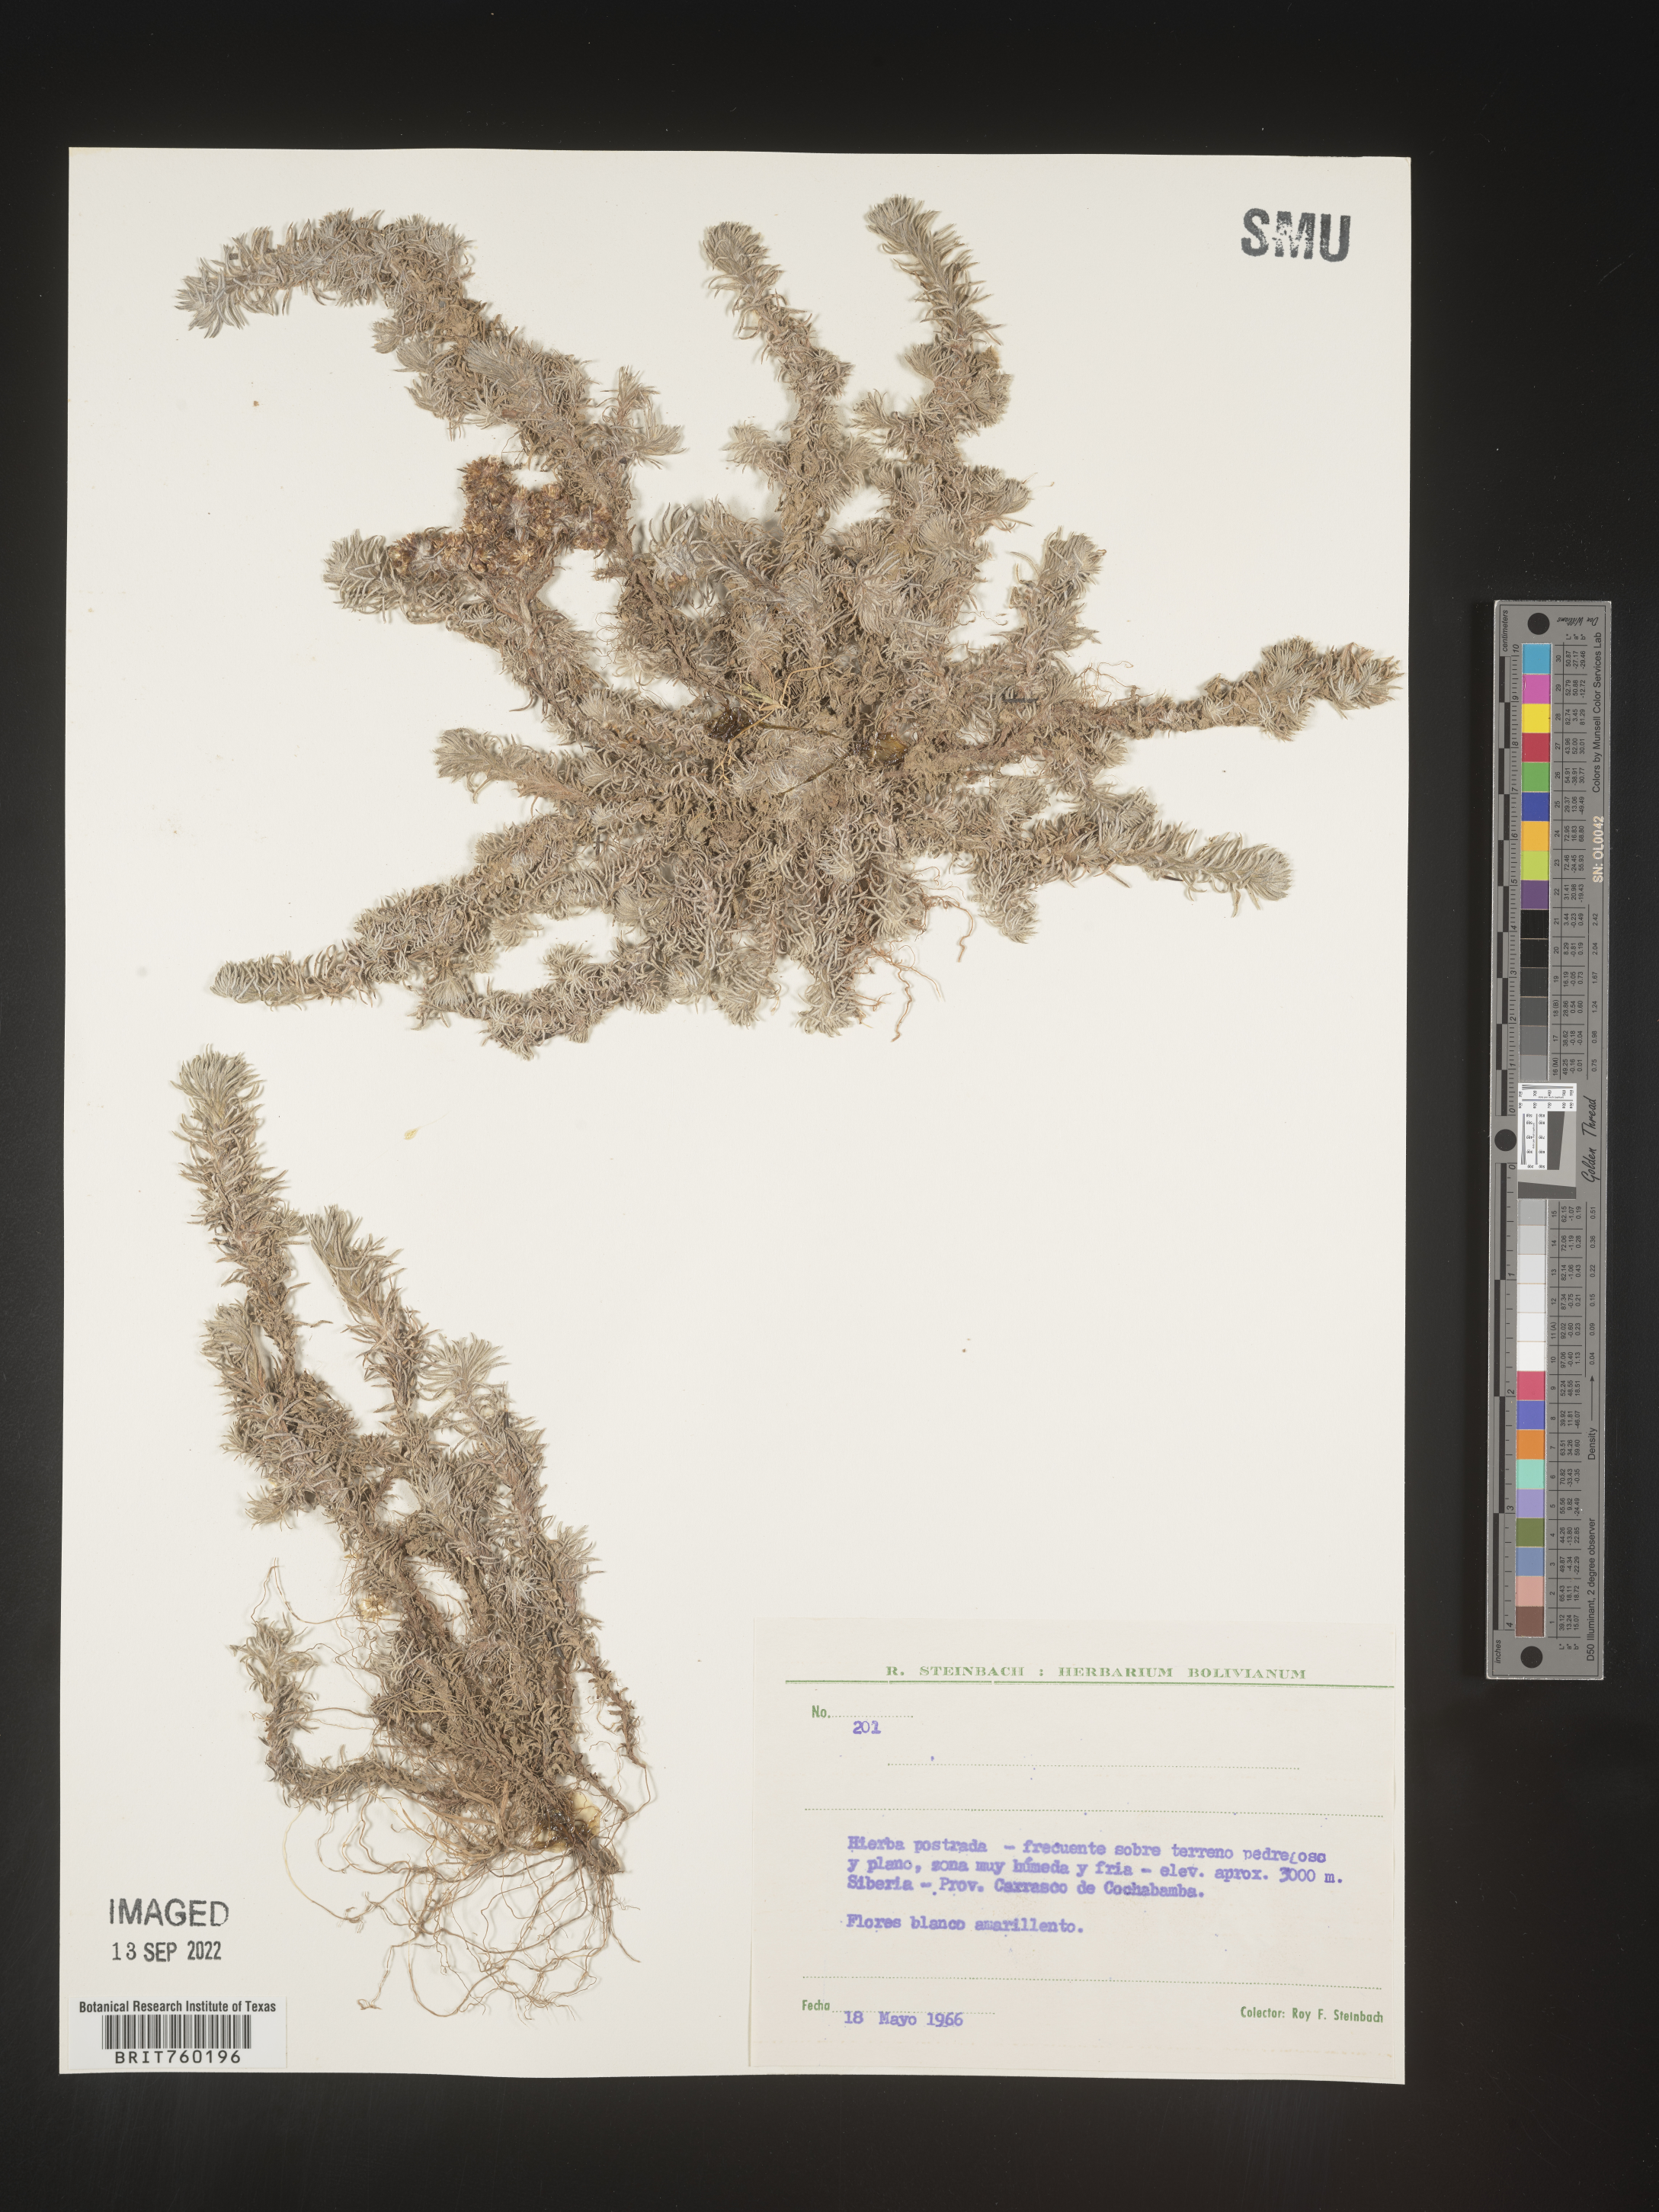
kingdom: Plantae
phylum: Tracheophyta
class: Magnoliopsida
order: Asterales
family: Asteraceae
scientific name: Asteraceae
